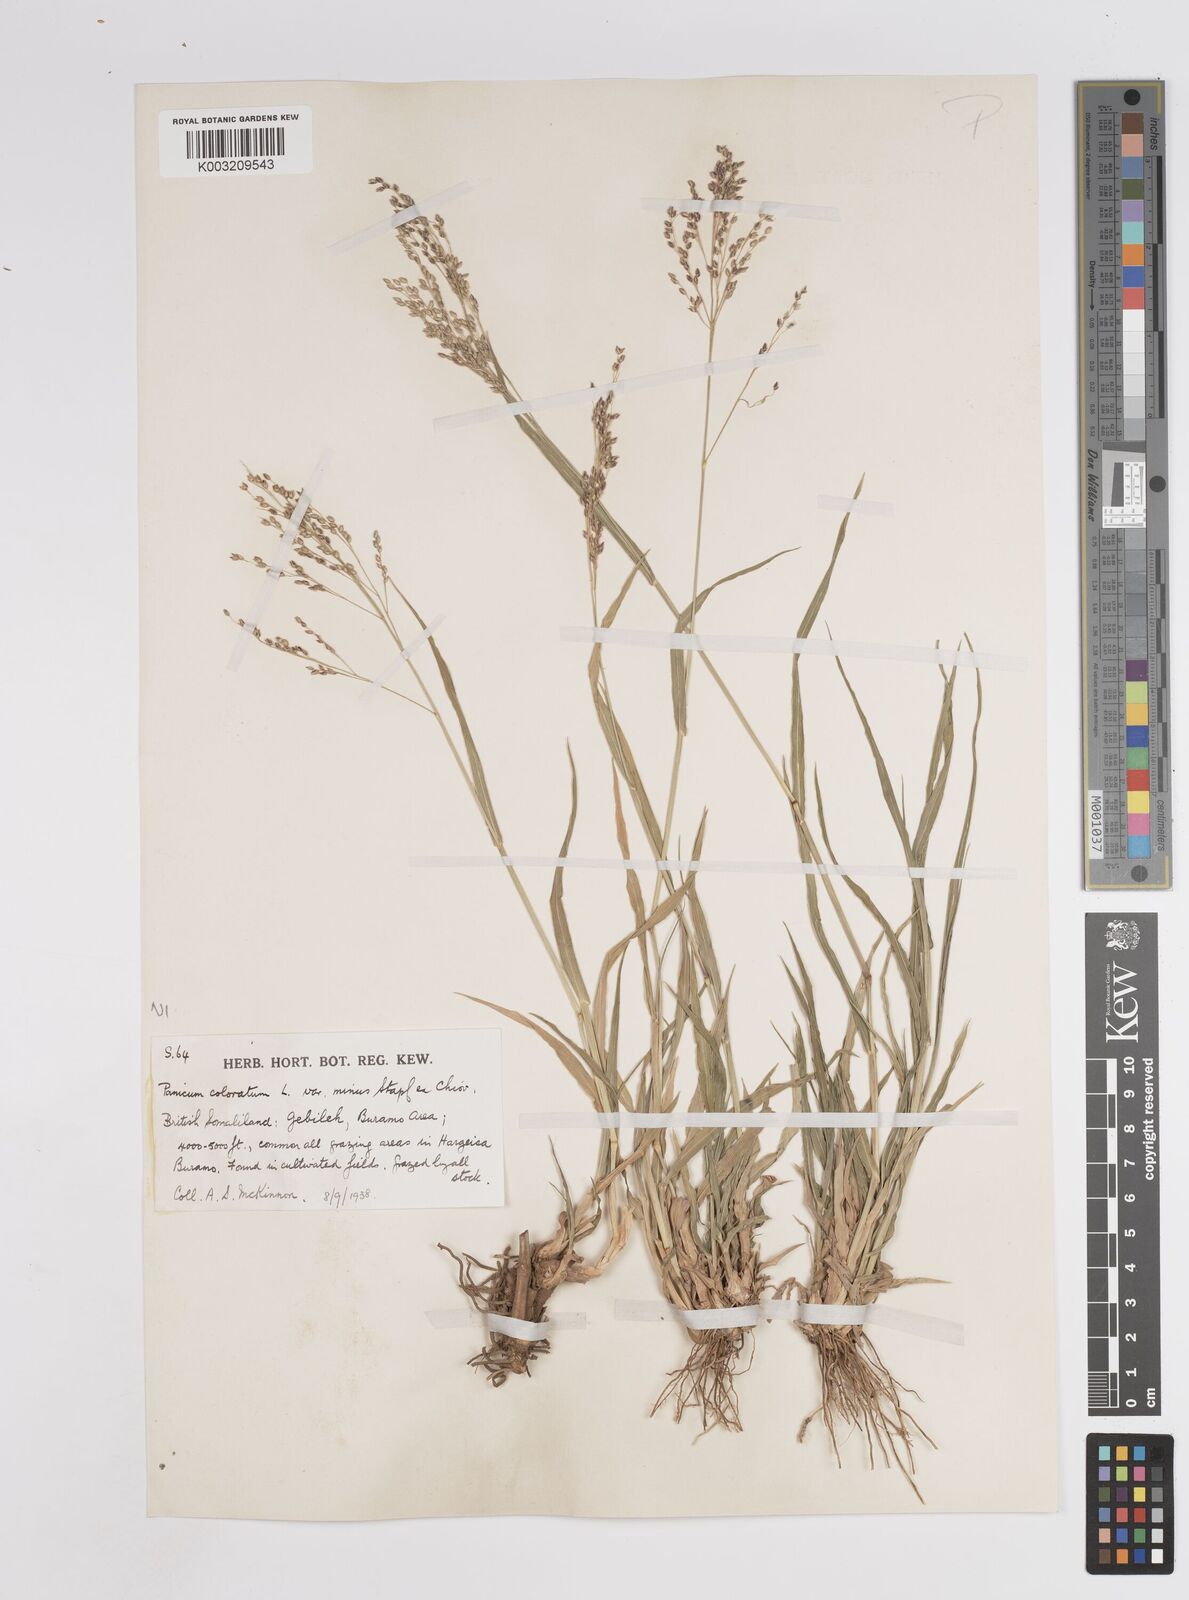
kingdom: Plantae
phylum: Tracheophyta
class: Liliopsida
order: Poales
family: Poaceae
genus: Panicum
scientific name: Panicum coloratum
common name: Kleingrass
